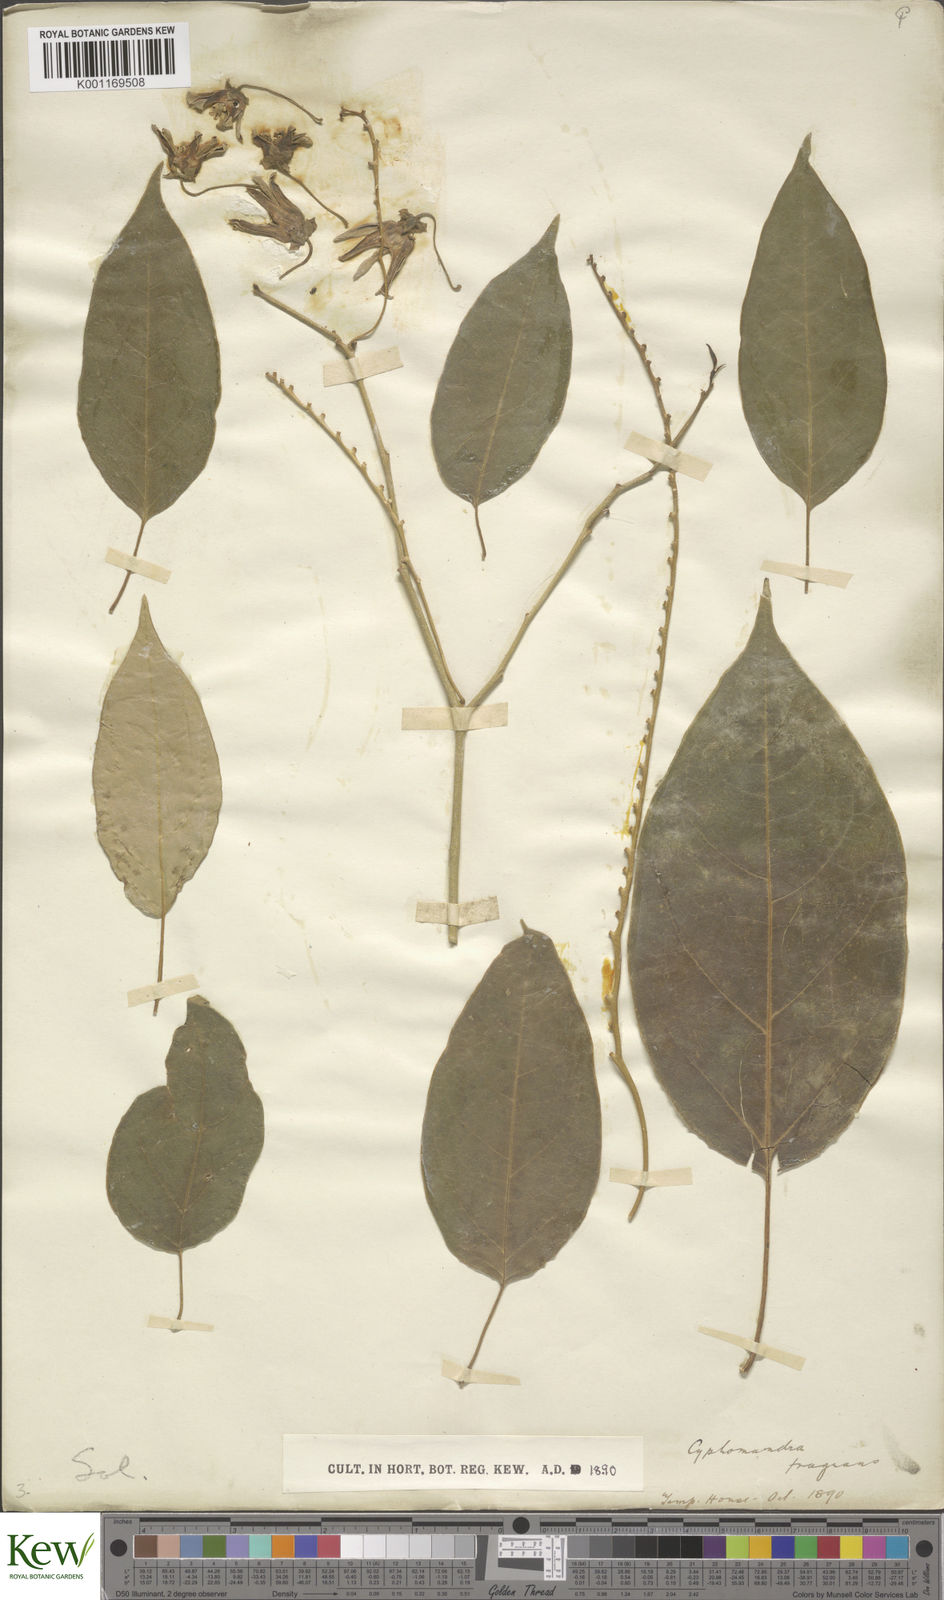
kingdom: Plantae
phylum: Tracheophyta
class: Magnoliopsida
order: Solanales
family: Solanaceae
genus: Solanum
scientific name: Solanum diploconos
